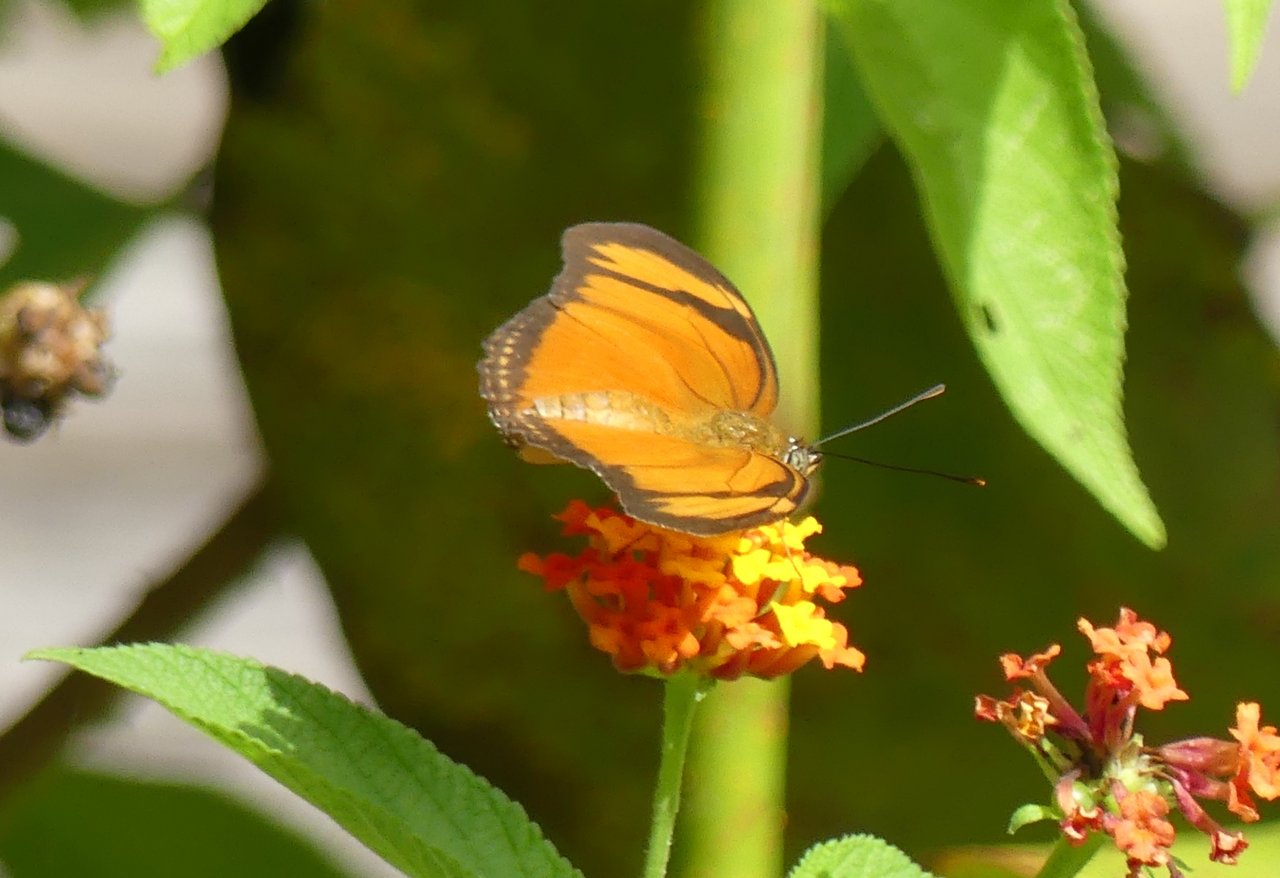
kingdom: Animalia
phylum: Arthropoda
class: Insecta
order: Lepidoptera
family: Nymphalidae
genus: Dryas
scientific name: Dryas iulia
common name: Julia
